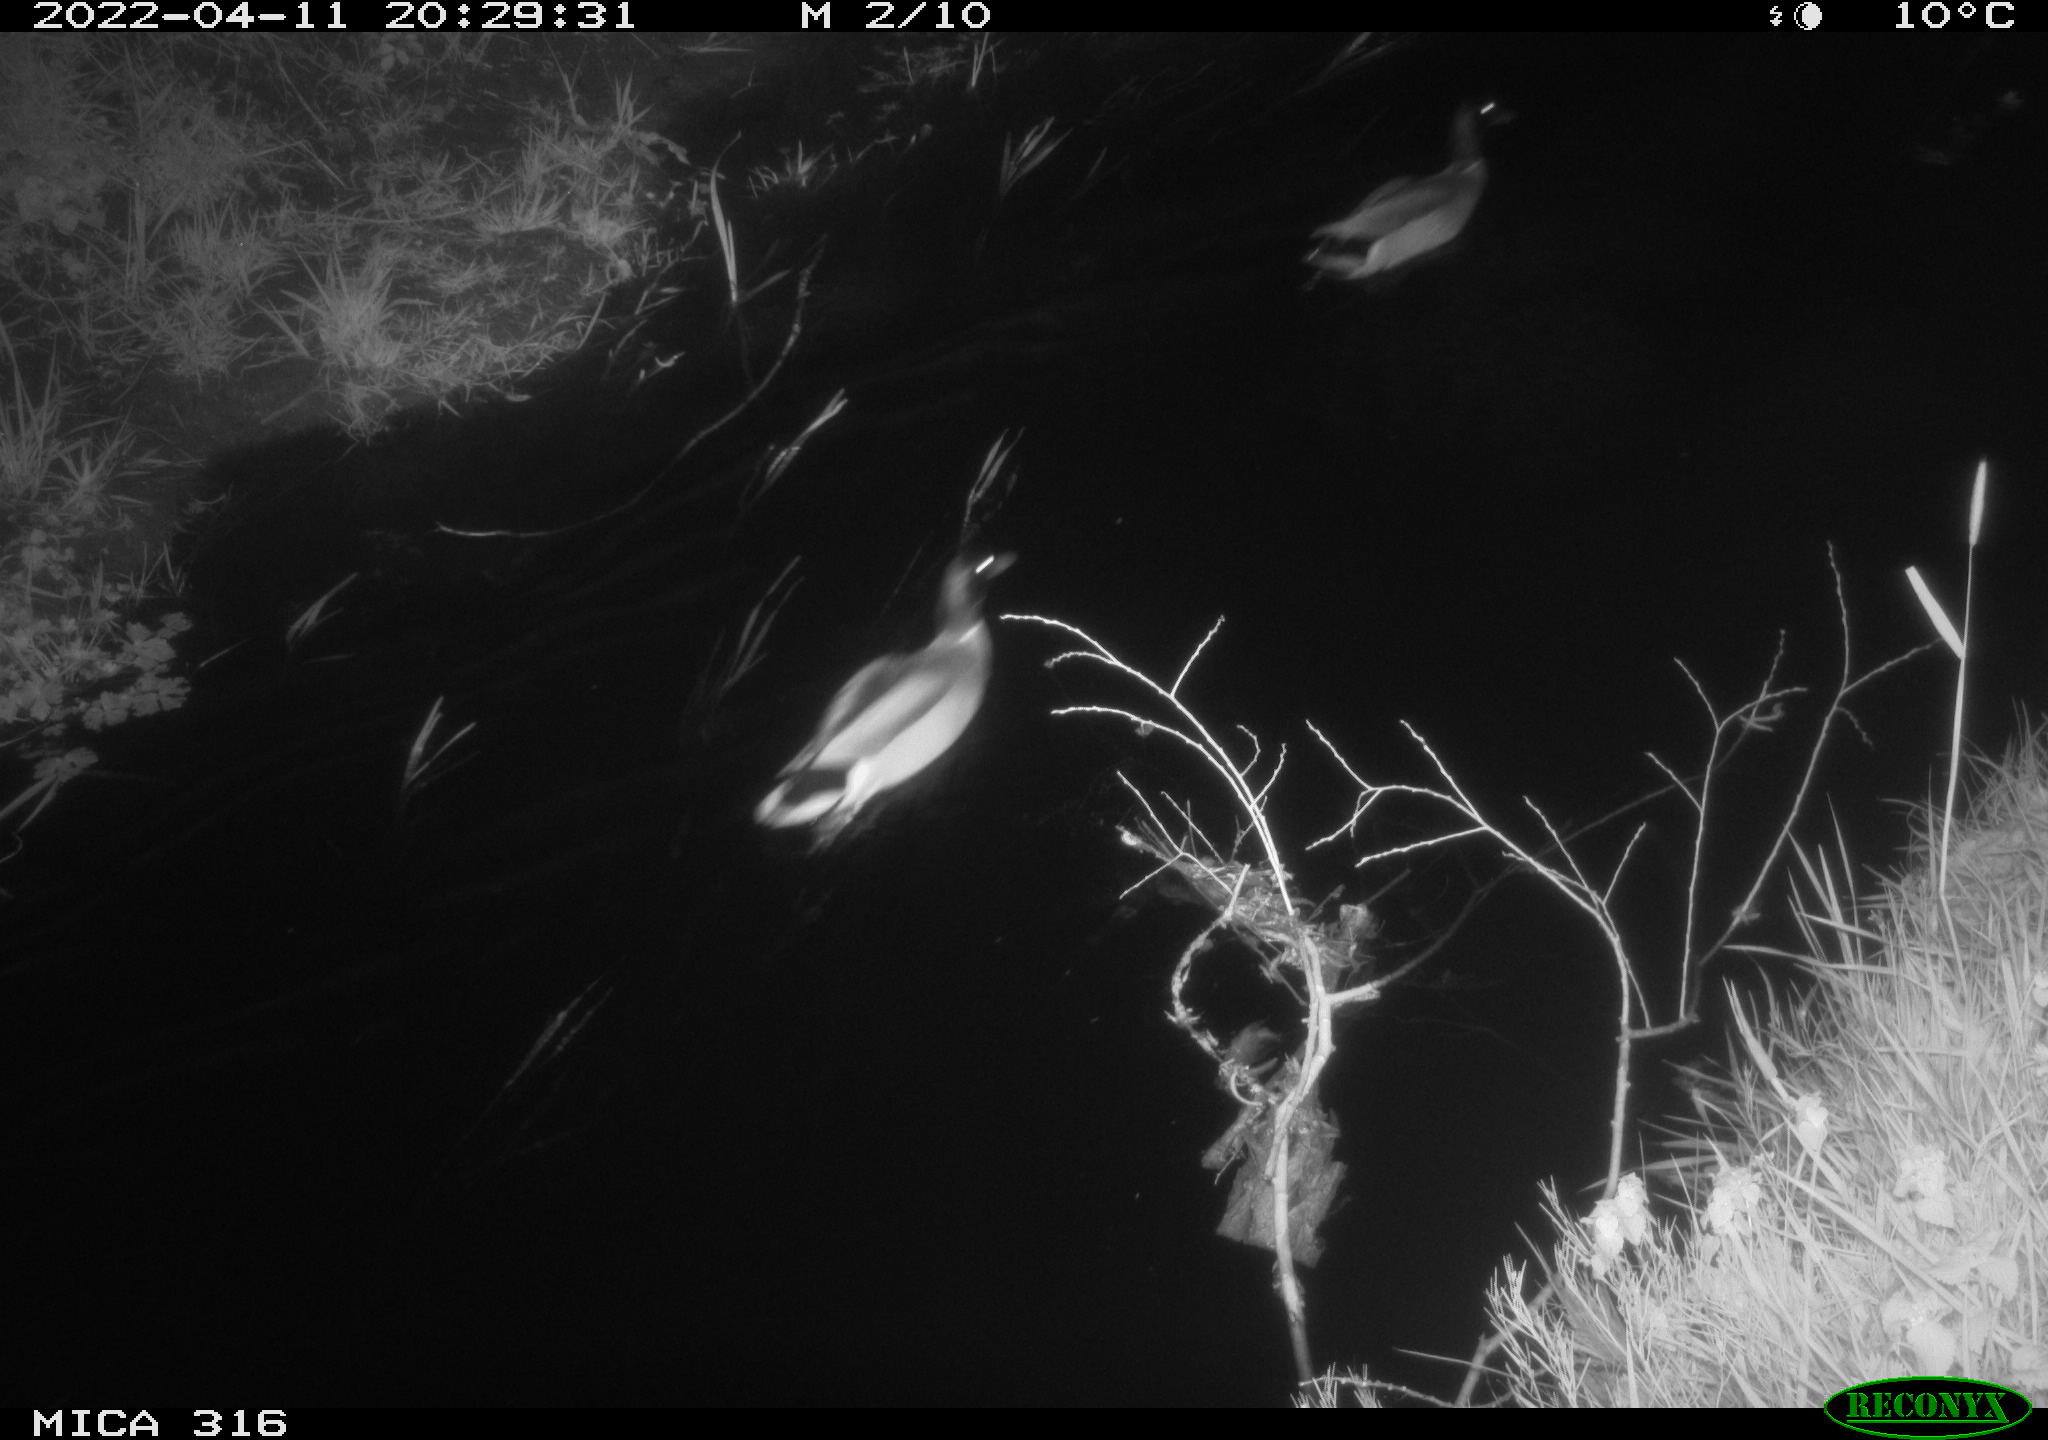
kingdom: Animalia
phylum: Chordata
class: Aves
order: Anseriformes
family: Anatidae
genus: Anas
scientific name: Anas platyrhynchos
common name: Mallard
